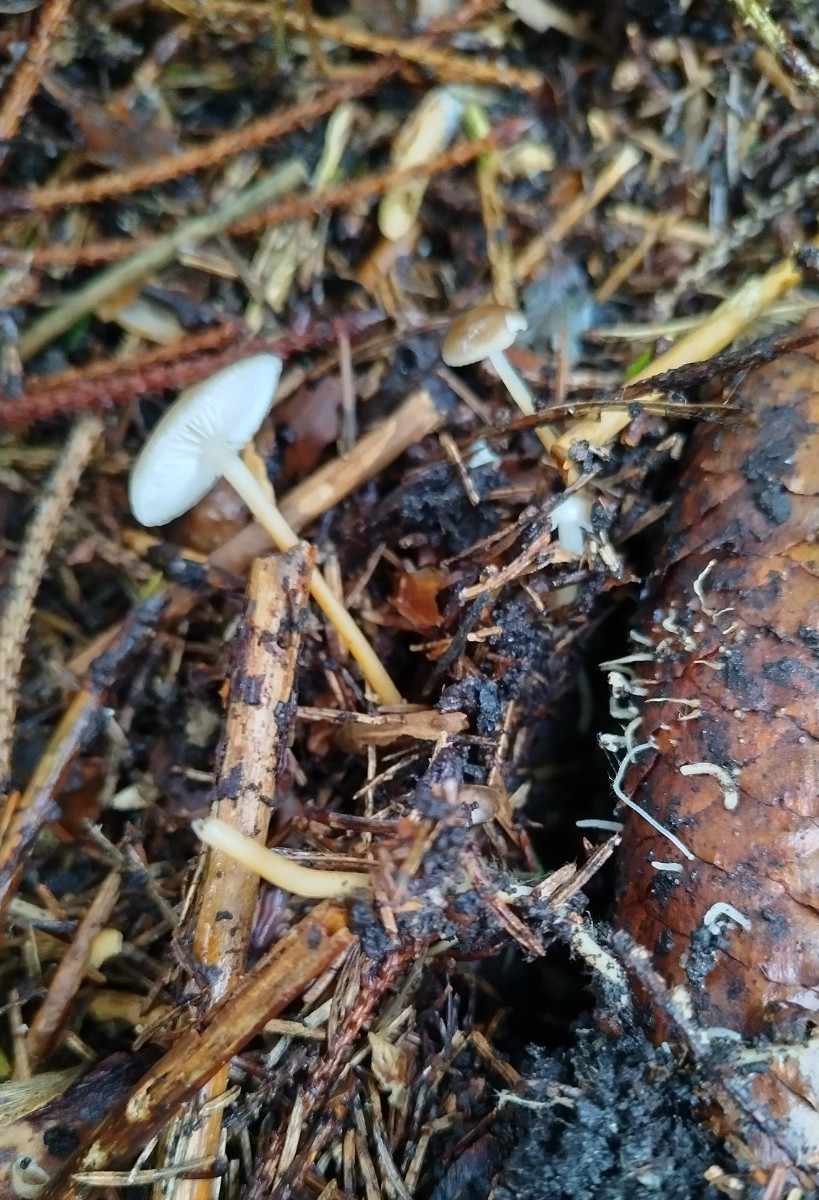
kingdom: Fungi
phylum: Basidiomycota
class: Agaricomycetes
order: Agaricales
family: Physalacriaceae
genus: Strobilurus
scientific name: Strobilurus esculentus
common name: gran-koglehat
